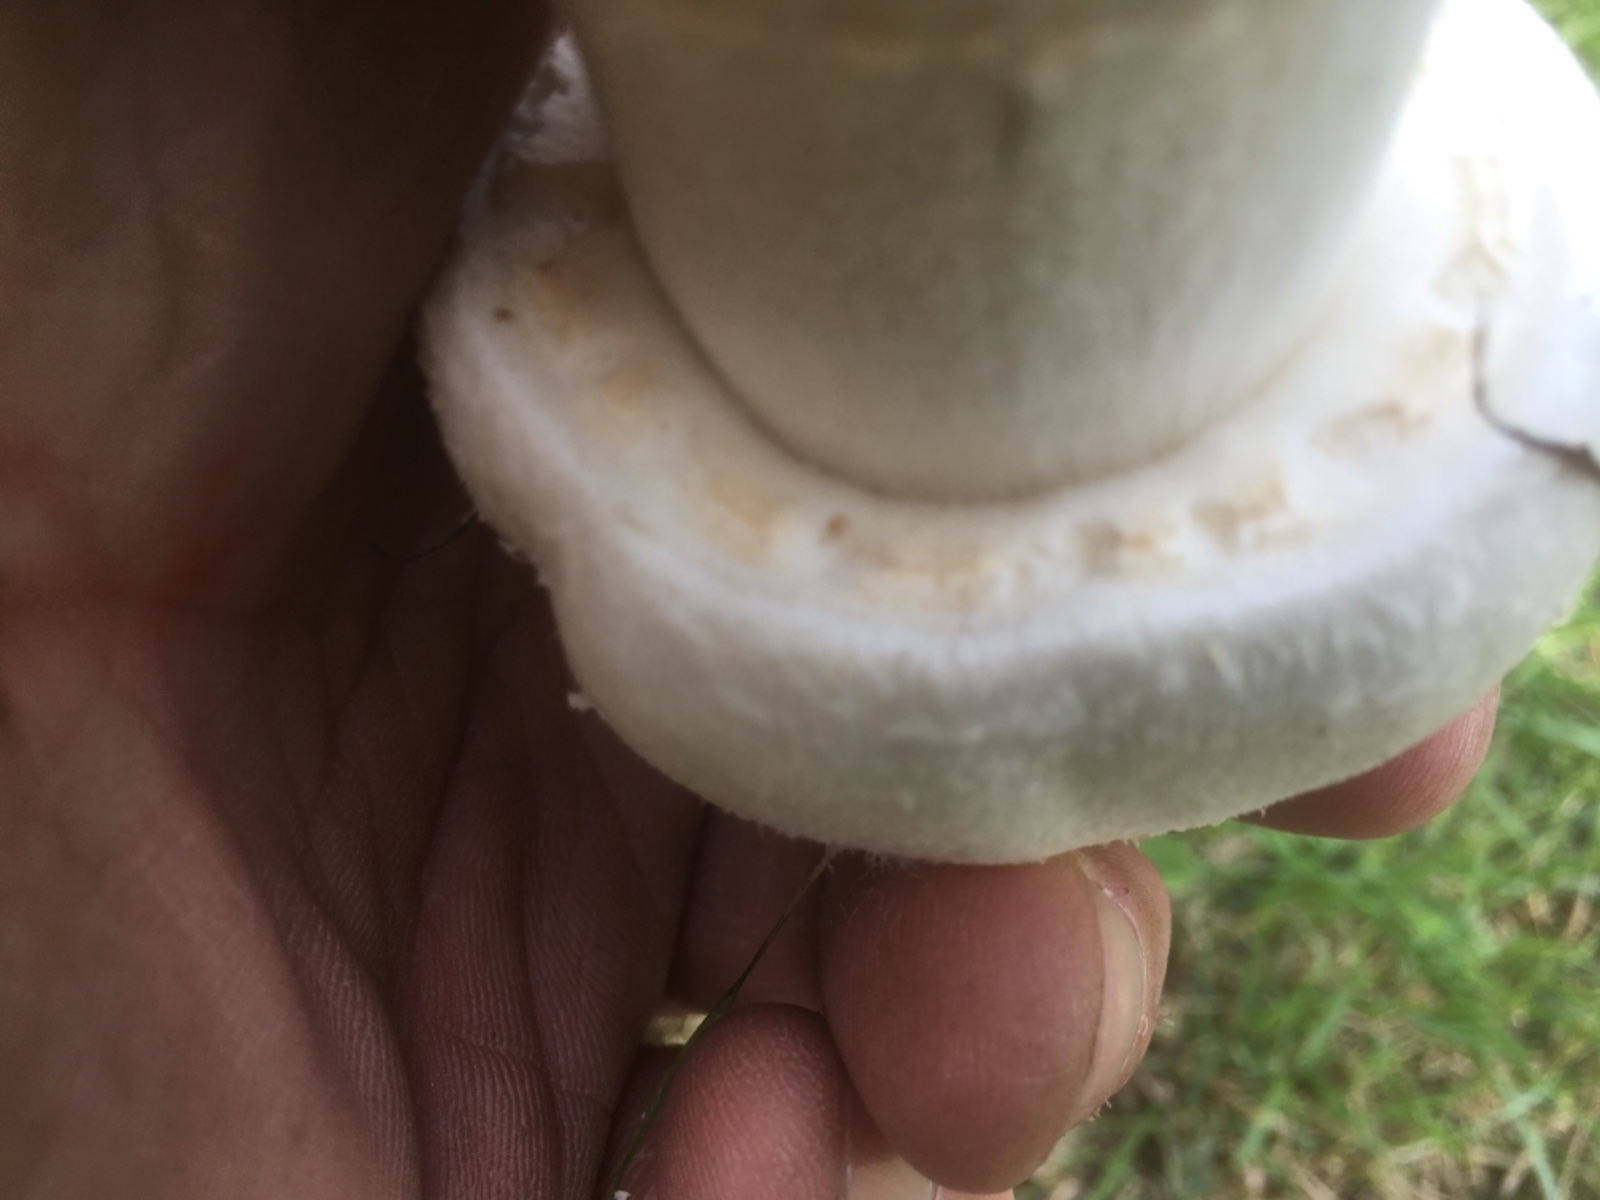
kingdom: Fungi
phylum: Basidiomycota
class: Agaricomycetes
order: Agaricales
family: Agaricaceae
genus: Agaricus
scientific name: Agaricus arvensis
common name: ager-champignon
